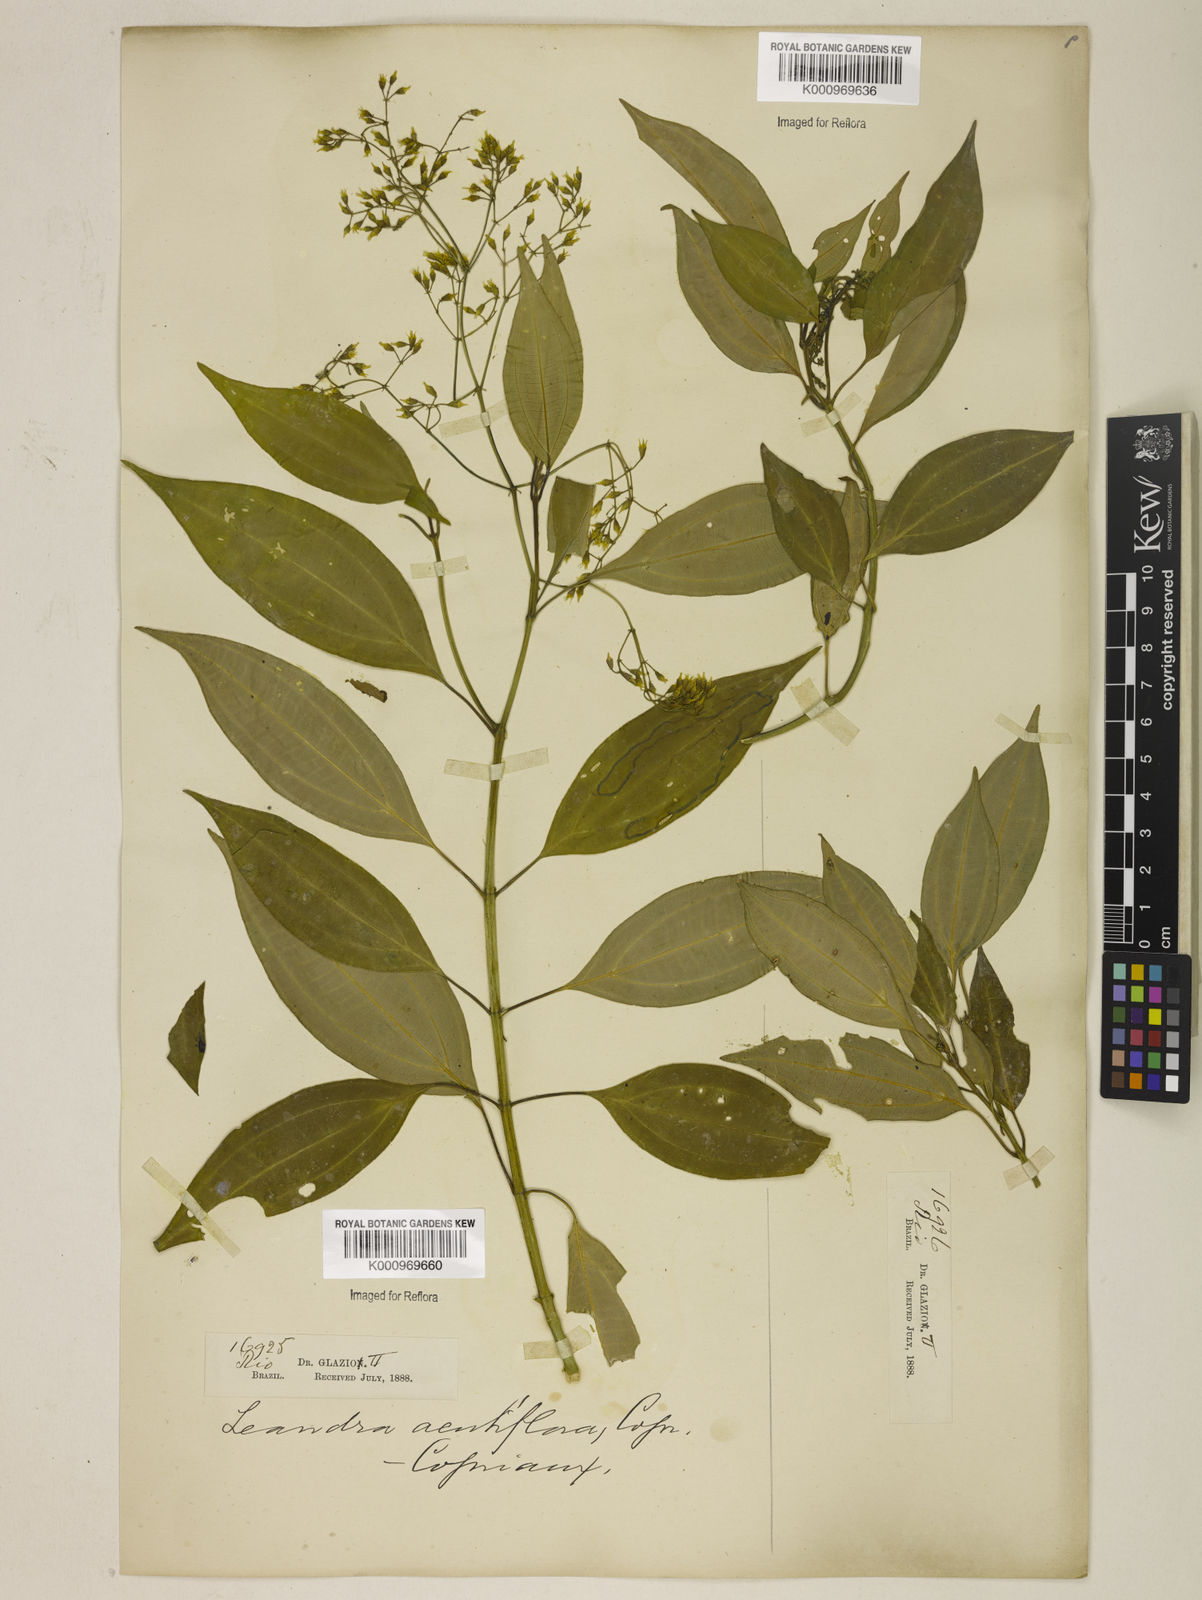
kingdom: Plantae
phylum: Tracheophyta
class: Magnoliopsida
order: Myrtales
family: Melastomataceae
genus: Miconia
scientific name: Miconia acutiflora
